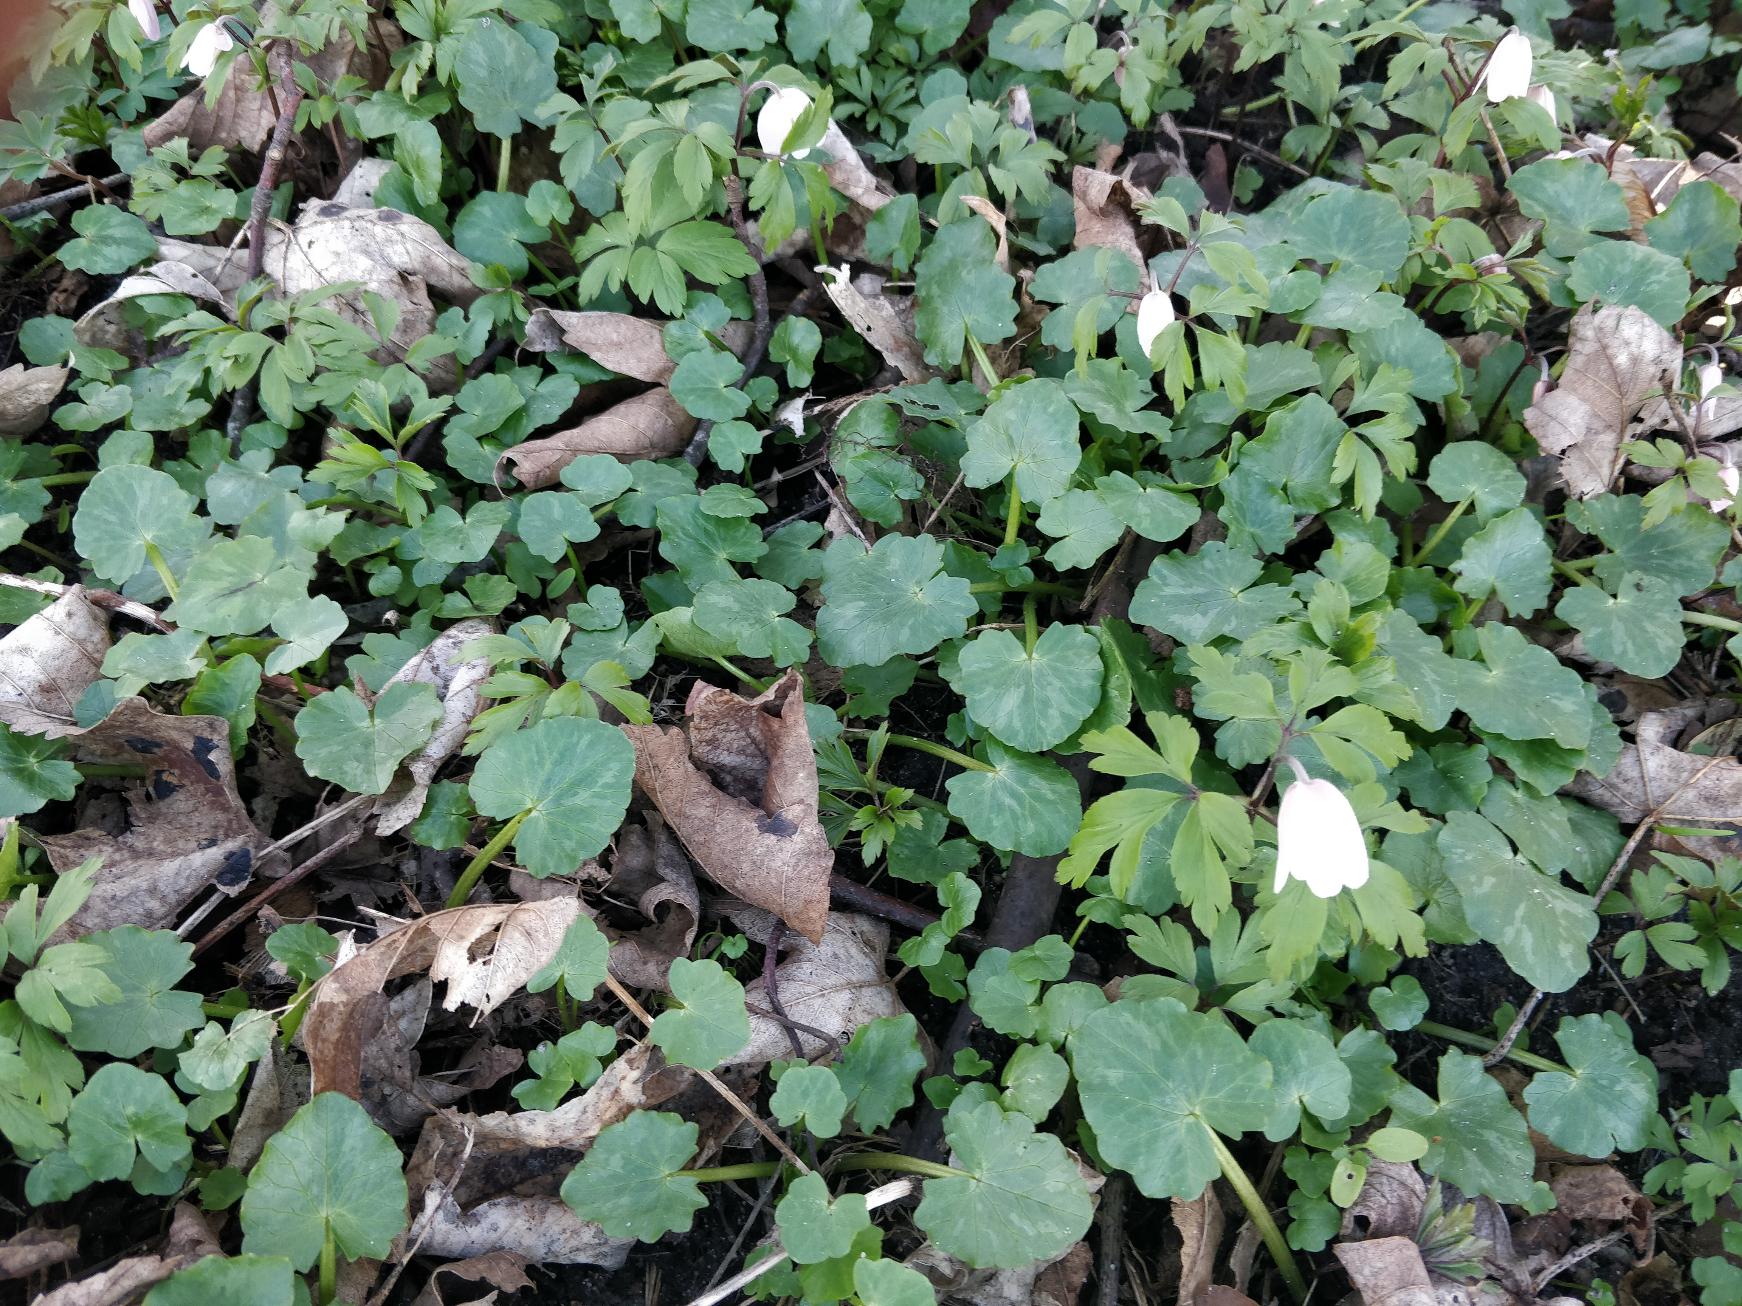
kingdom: Plantae
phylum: Tracheophyta
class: Magnoliopsida
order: Ranunculales
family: Ranunculaceae
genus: Anemone
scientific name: Anemone nemorosa
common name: Hvid anemone
